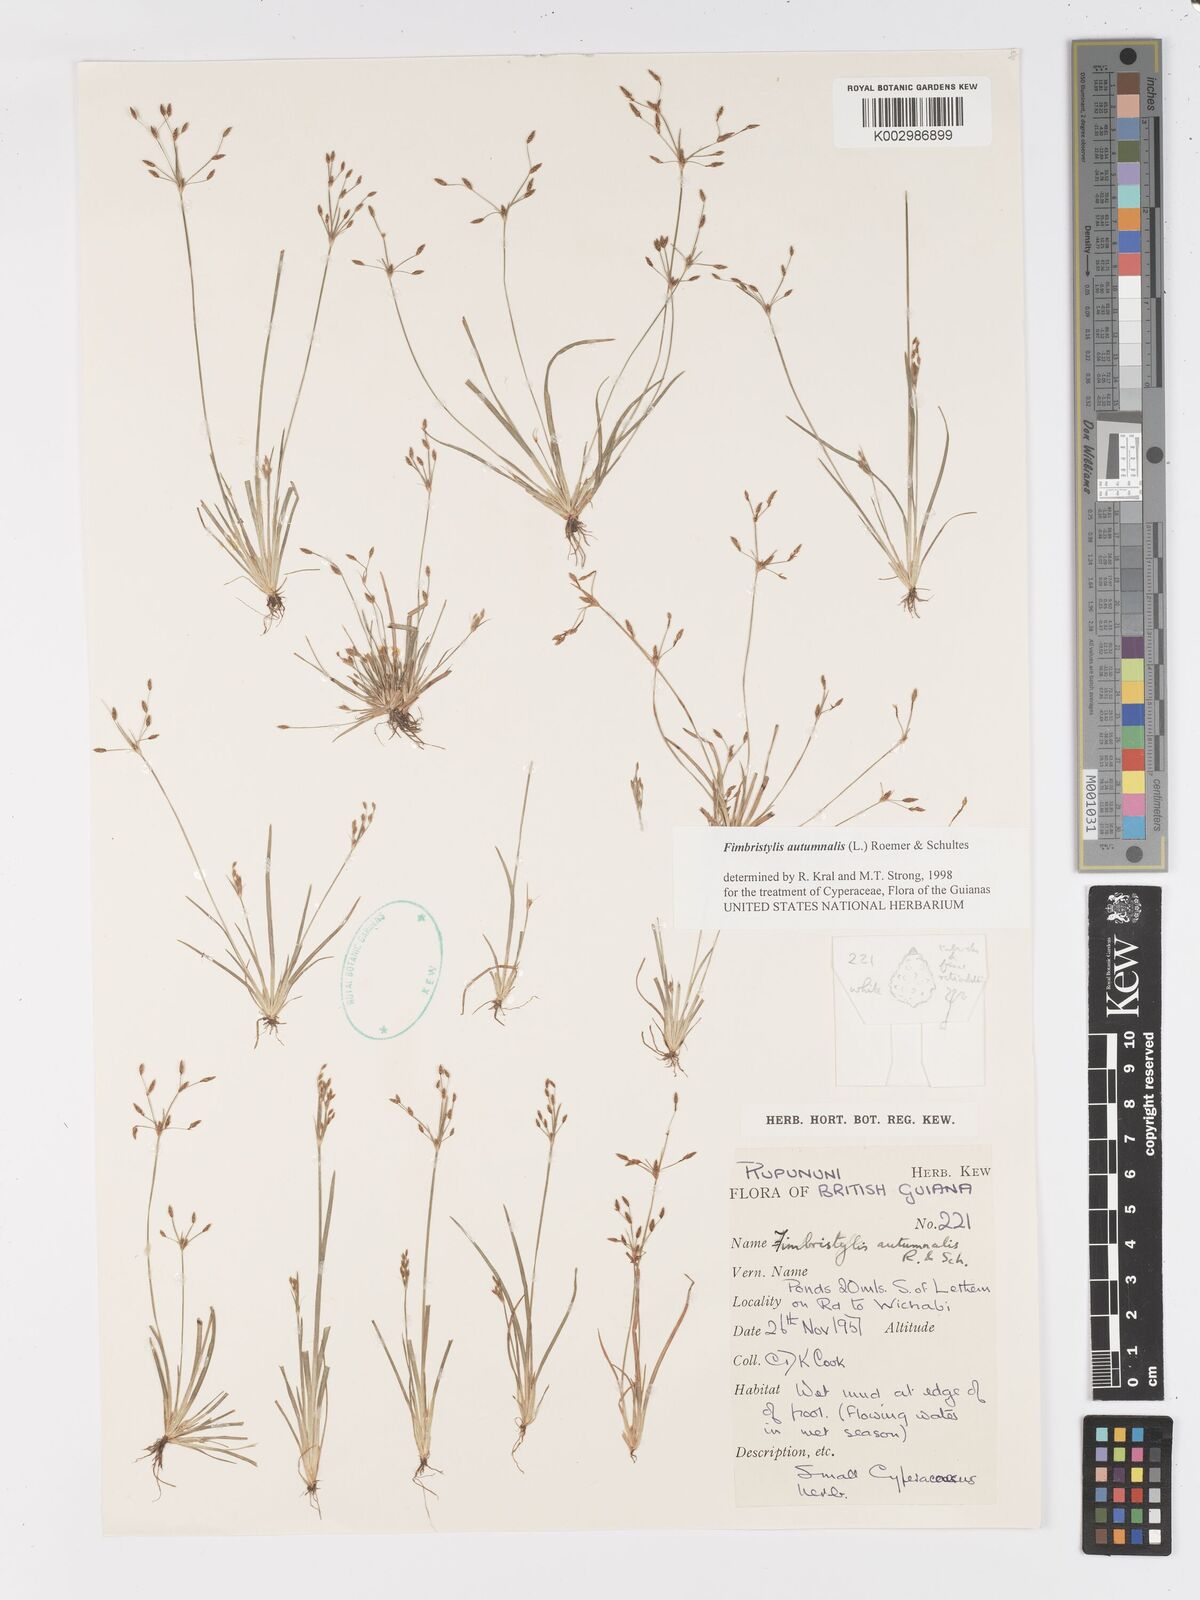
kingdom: Plantae
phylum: Tracheophyta
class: Liliopsida
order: Poales
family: Cyperaceae
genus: Fimbristylis
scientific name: Fimbristylis autumnalis
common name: Slender fimbristylis
